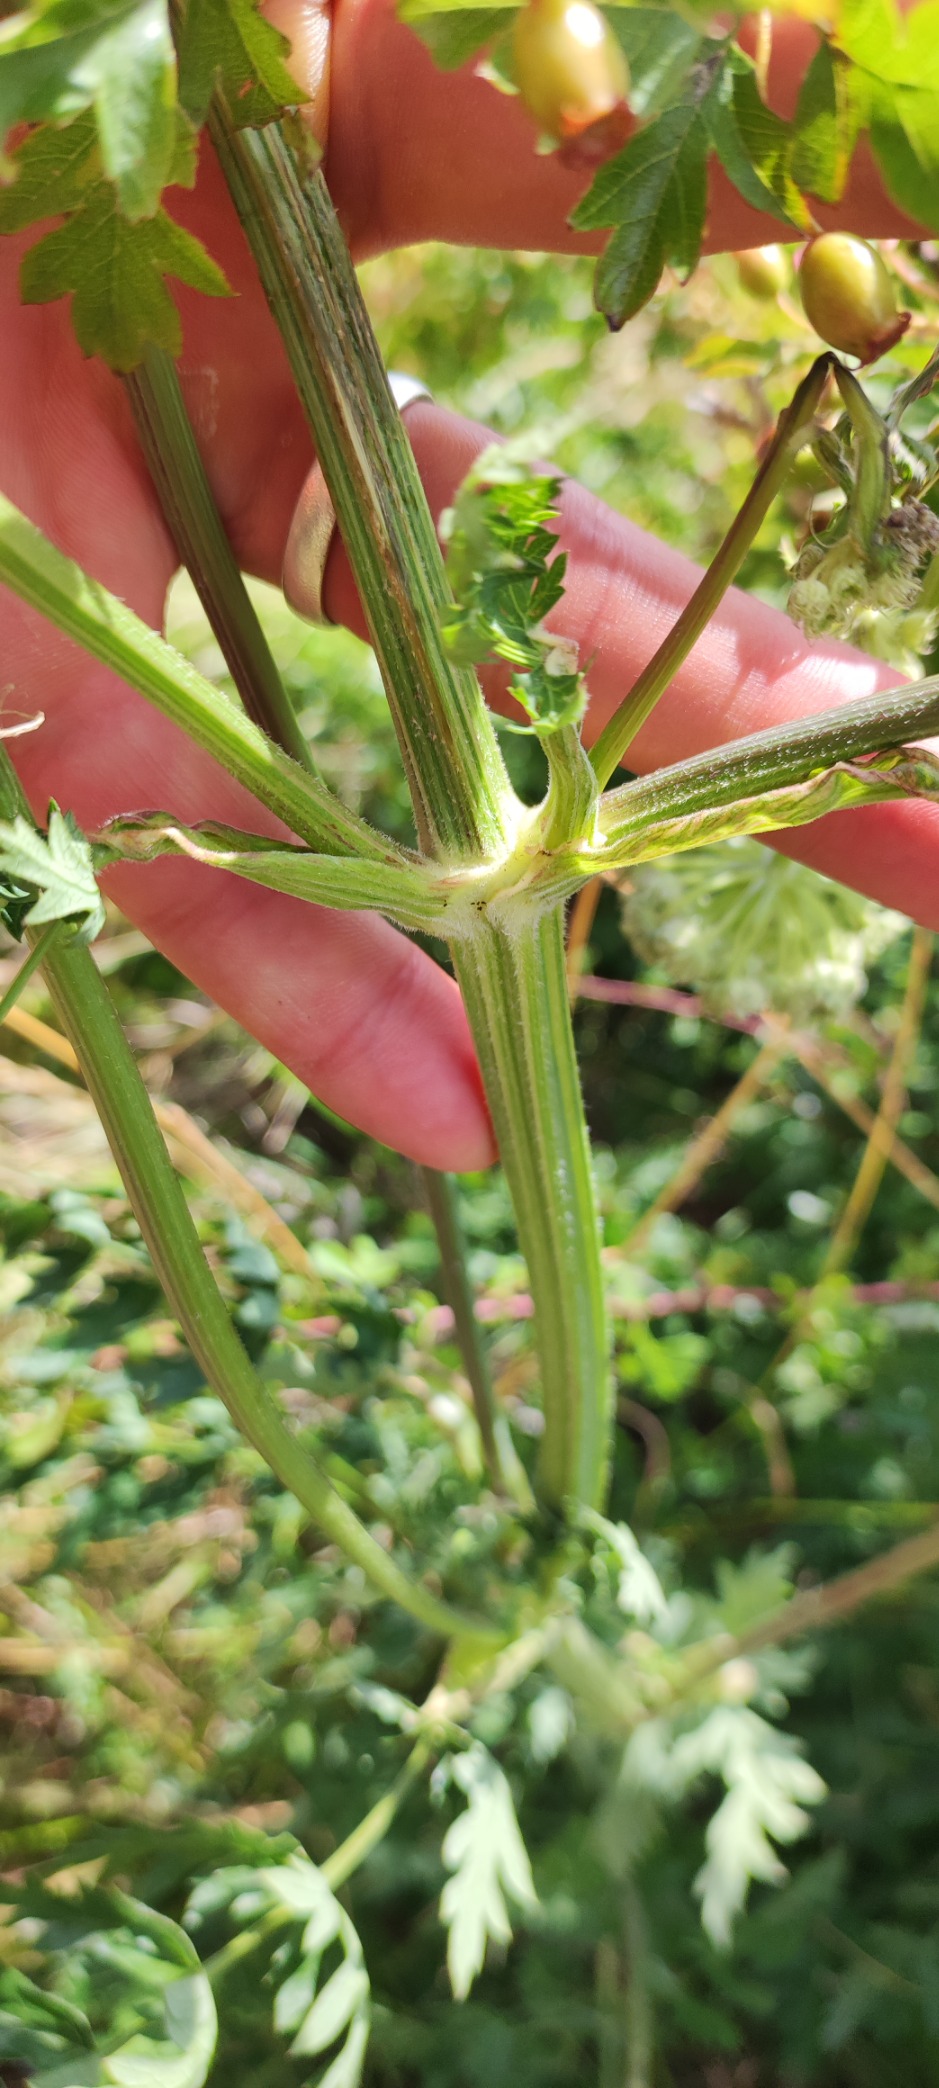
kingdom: Plantae
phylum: Tracheophyta
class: Magnoliopsida
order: Apiales
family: Apiaceae
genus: Seseli
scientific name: Seseli libanotis
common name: Hjorterod
